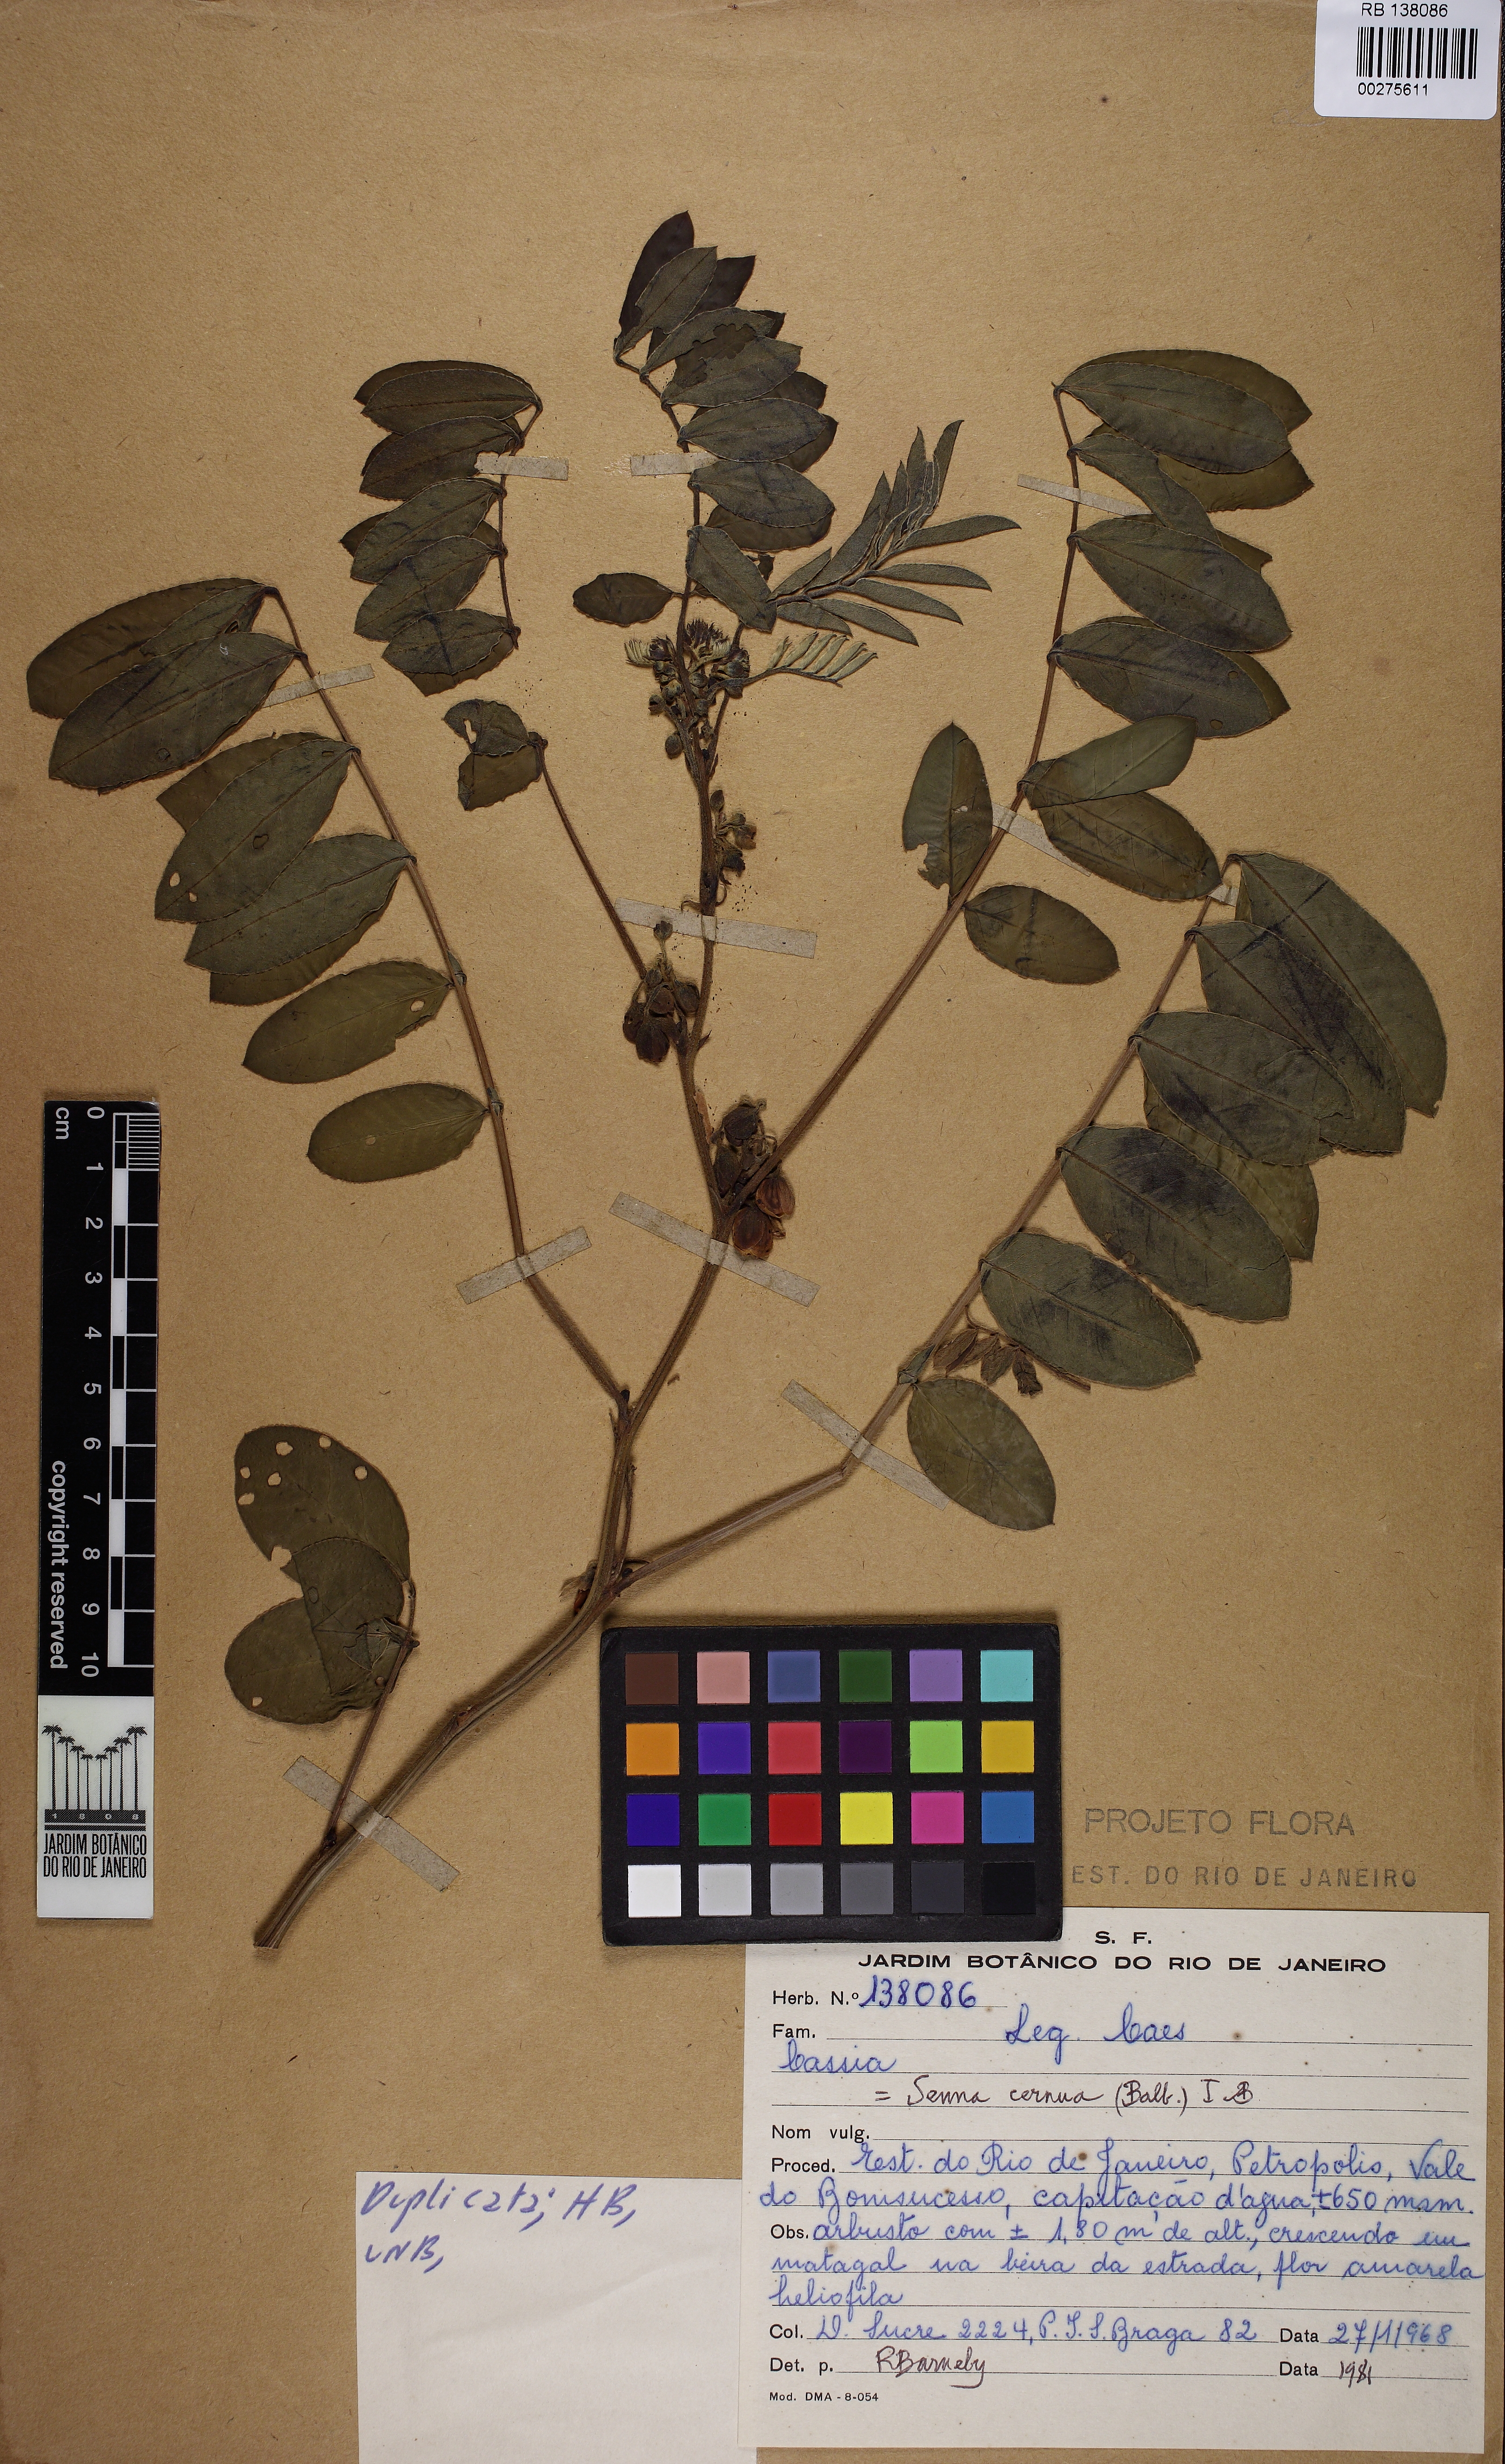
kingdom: Plantae
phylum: Tracheophyta
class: Magnoliopsida
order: Fabales
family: Fabaceae
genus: Senna
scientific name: Senna cernua
